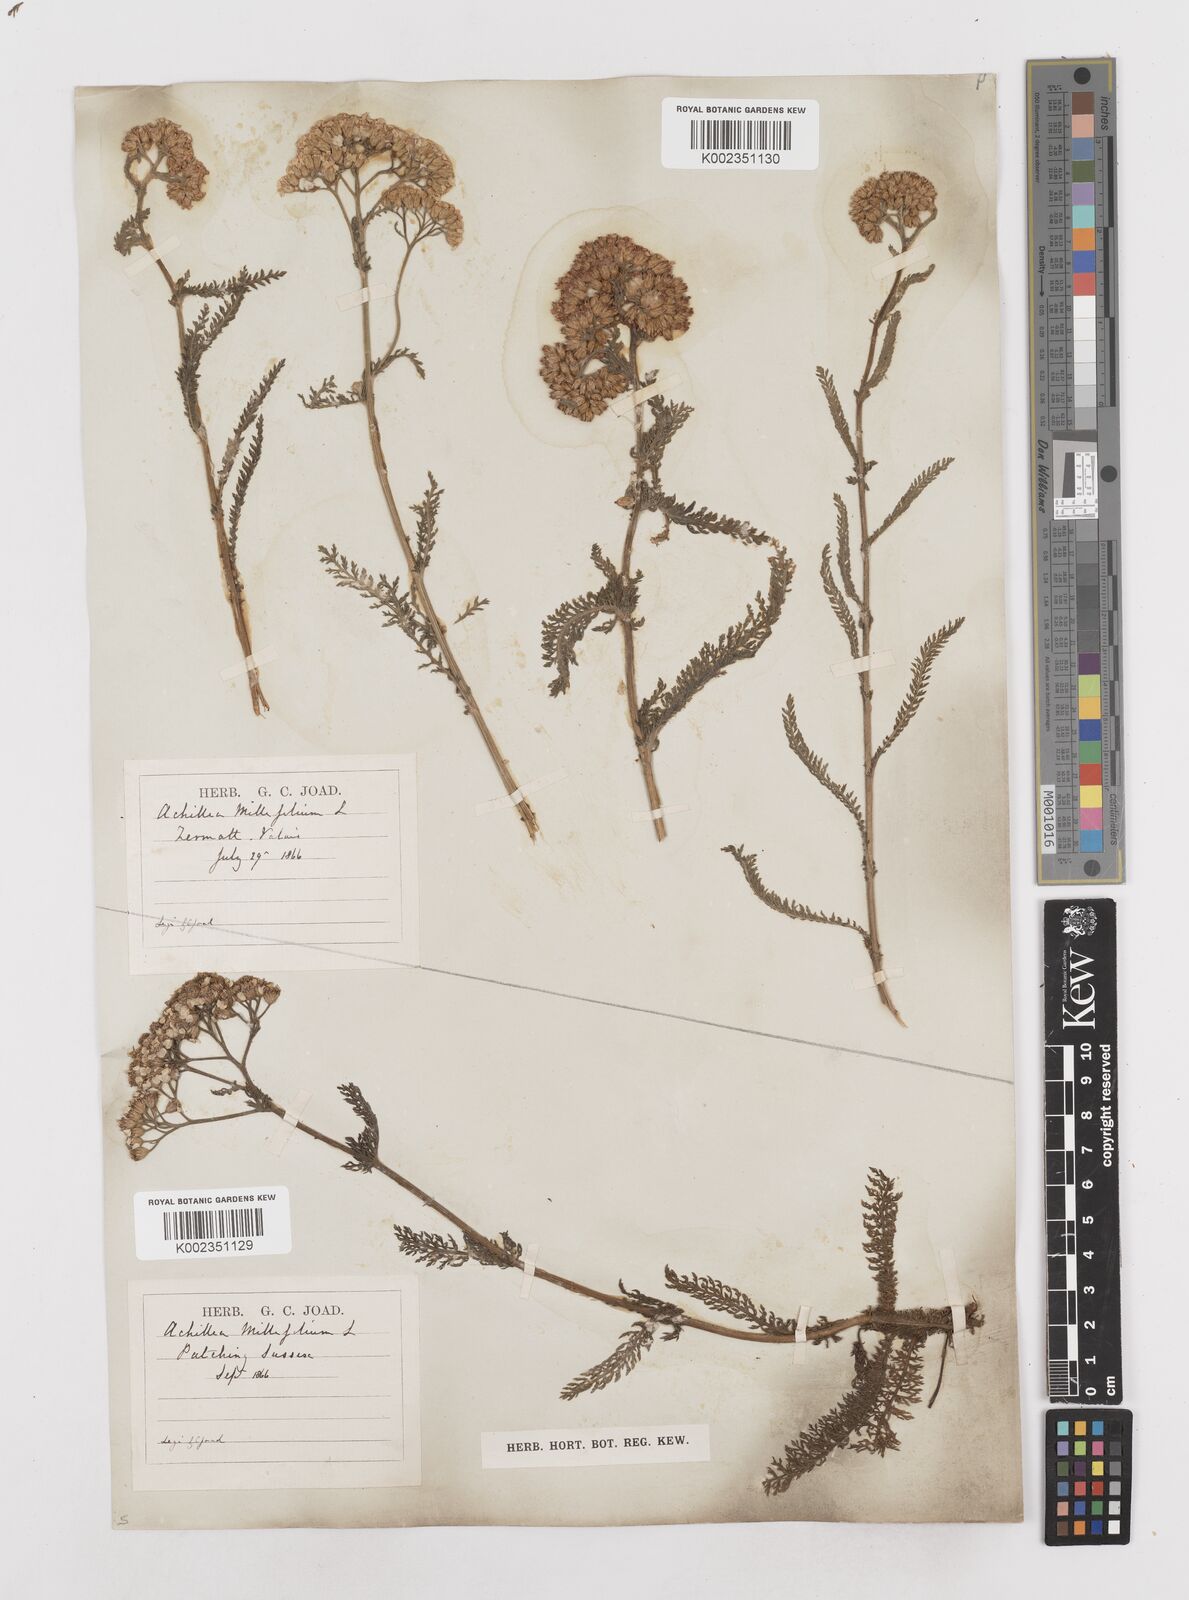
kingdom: Plantae
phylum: Tracheophyta
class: Magnoliopsida
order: Asterales
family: Asteraceae
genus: Achillea
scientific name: Achillea millefolium
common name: Yarrow
